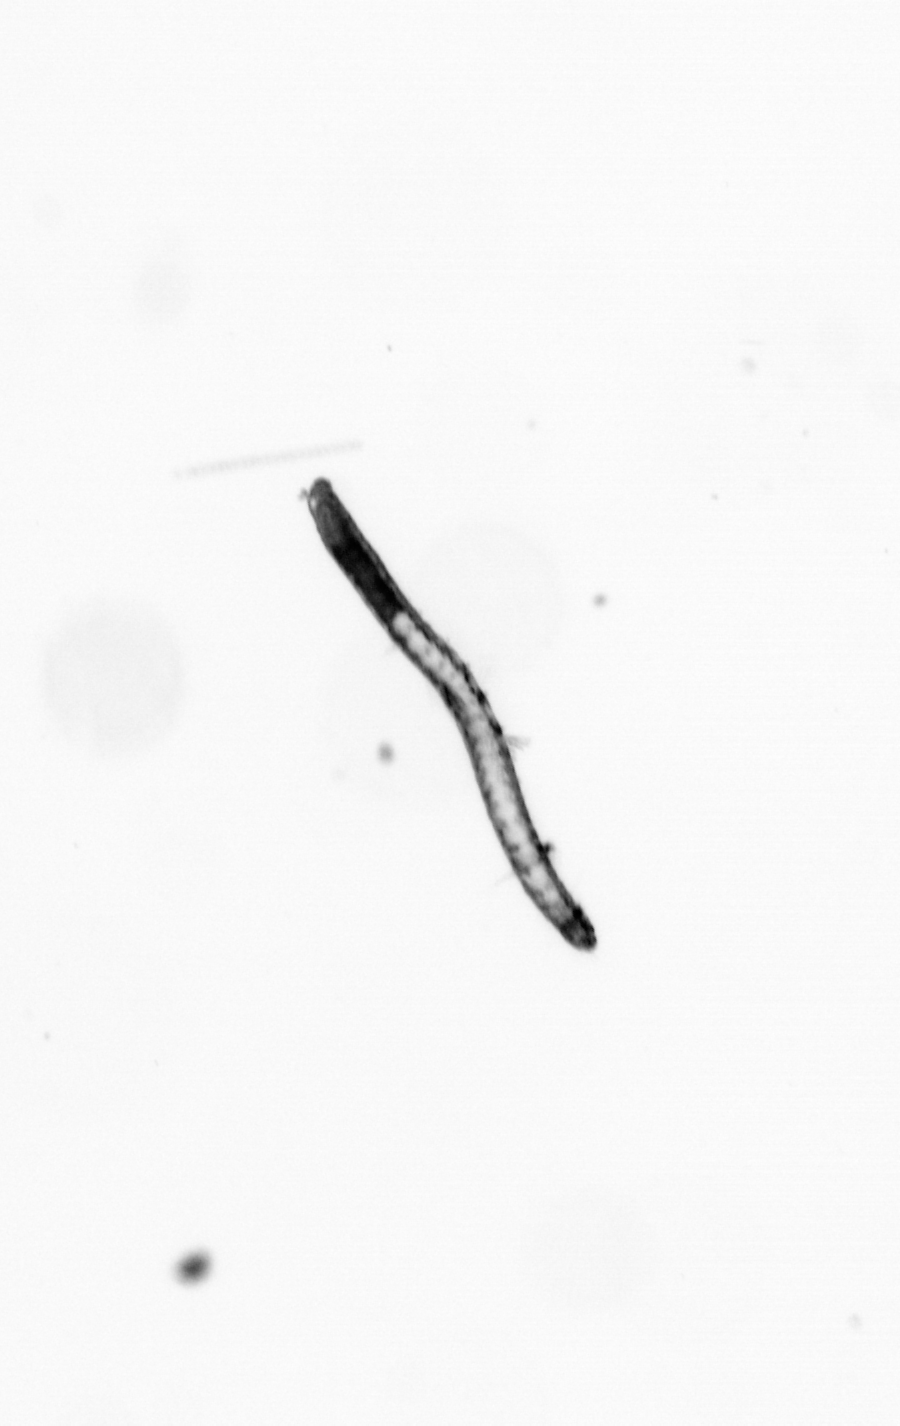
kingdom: Animalia
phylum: Annelida
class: Polychaeta
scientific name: Polychaeta
